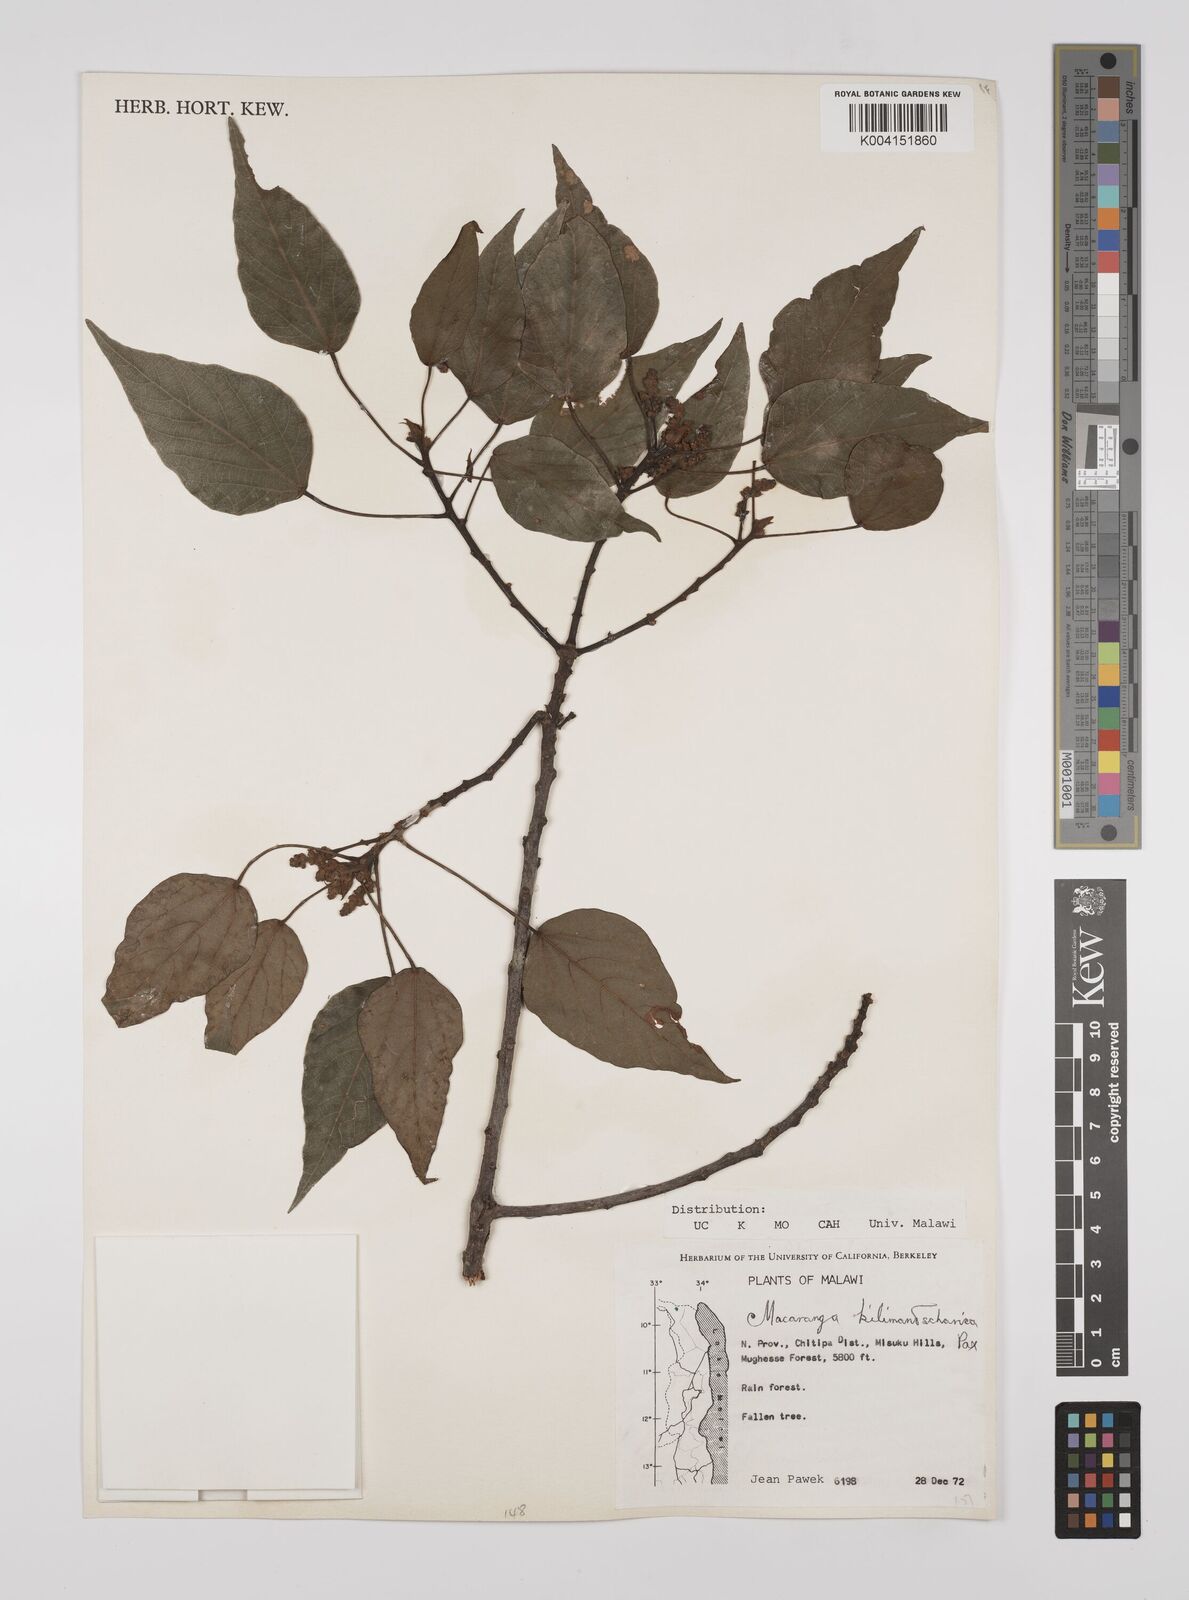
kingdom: Plantae
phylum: Tracheophyta
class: Magnoliopsida
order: Malpighiales
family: Euphorbiaceae
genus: Macaranga
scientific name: Macaranga kilimandscharica
